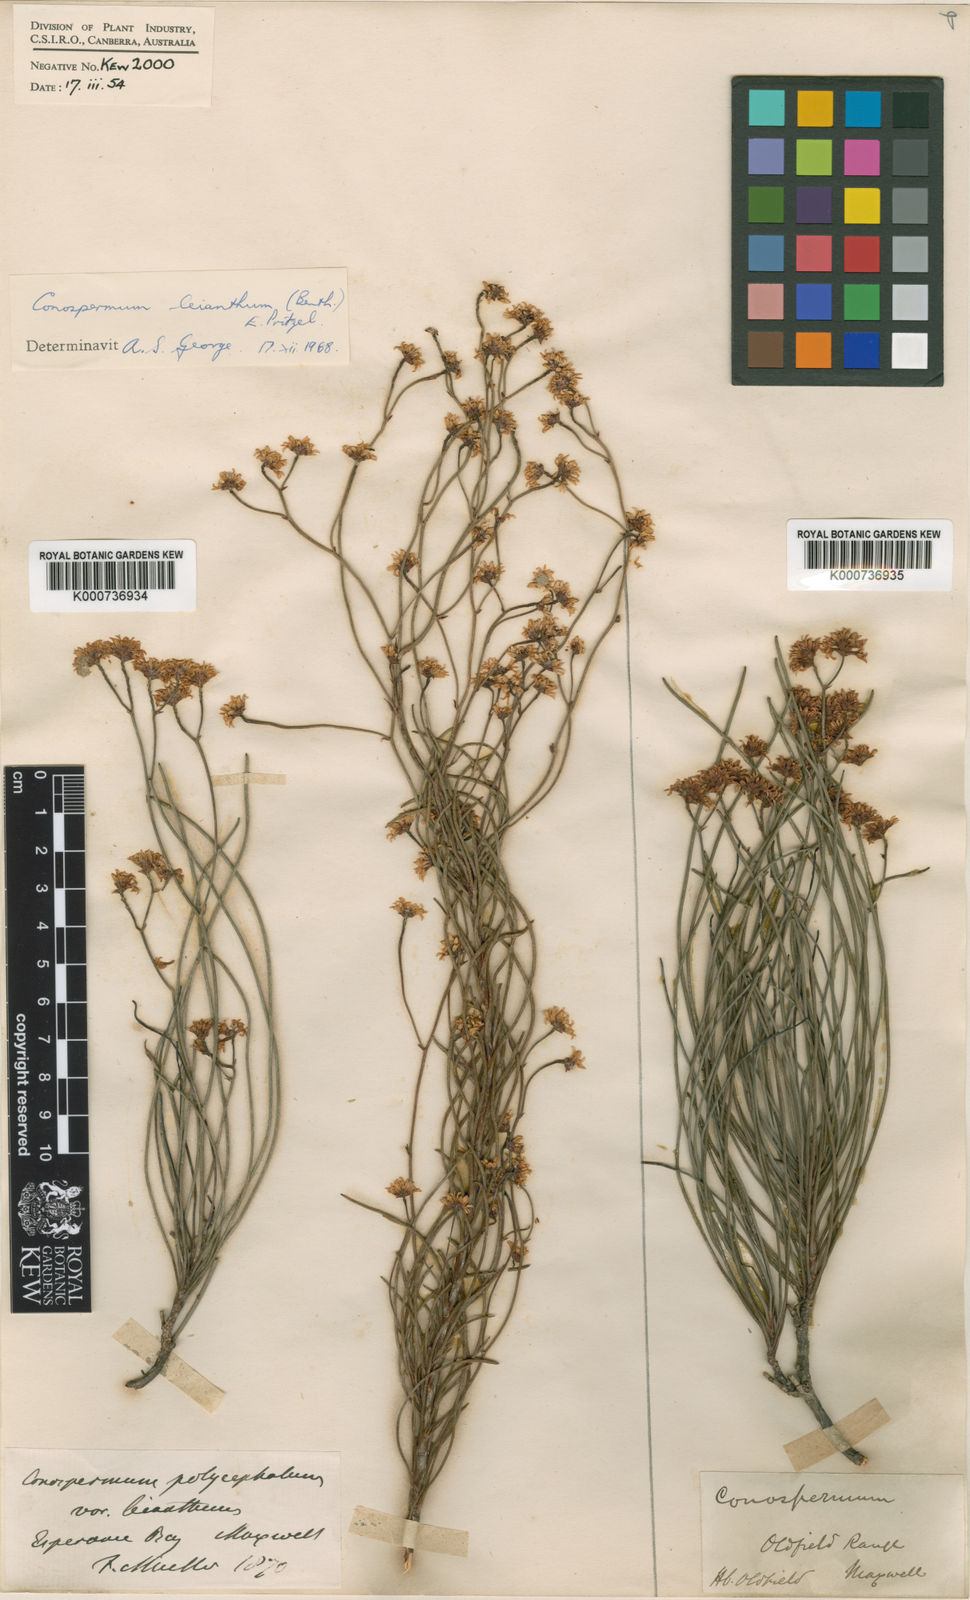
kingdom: Plantae
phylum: Tracheophyta
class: Magnoliopsida
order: Proteales
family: Proteaceae
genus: Conospermum
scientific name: Conospermum leianthum
